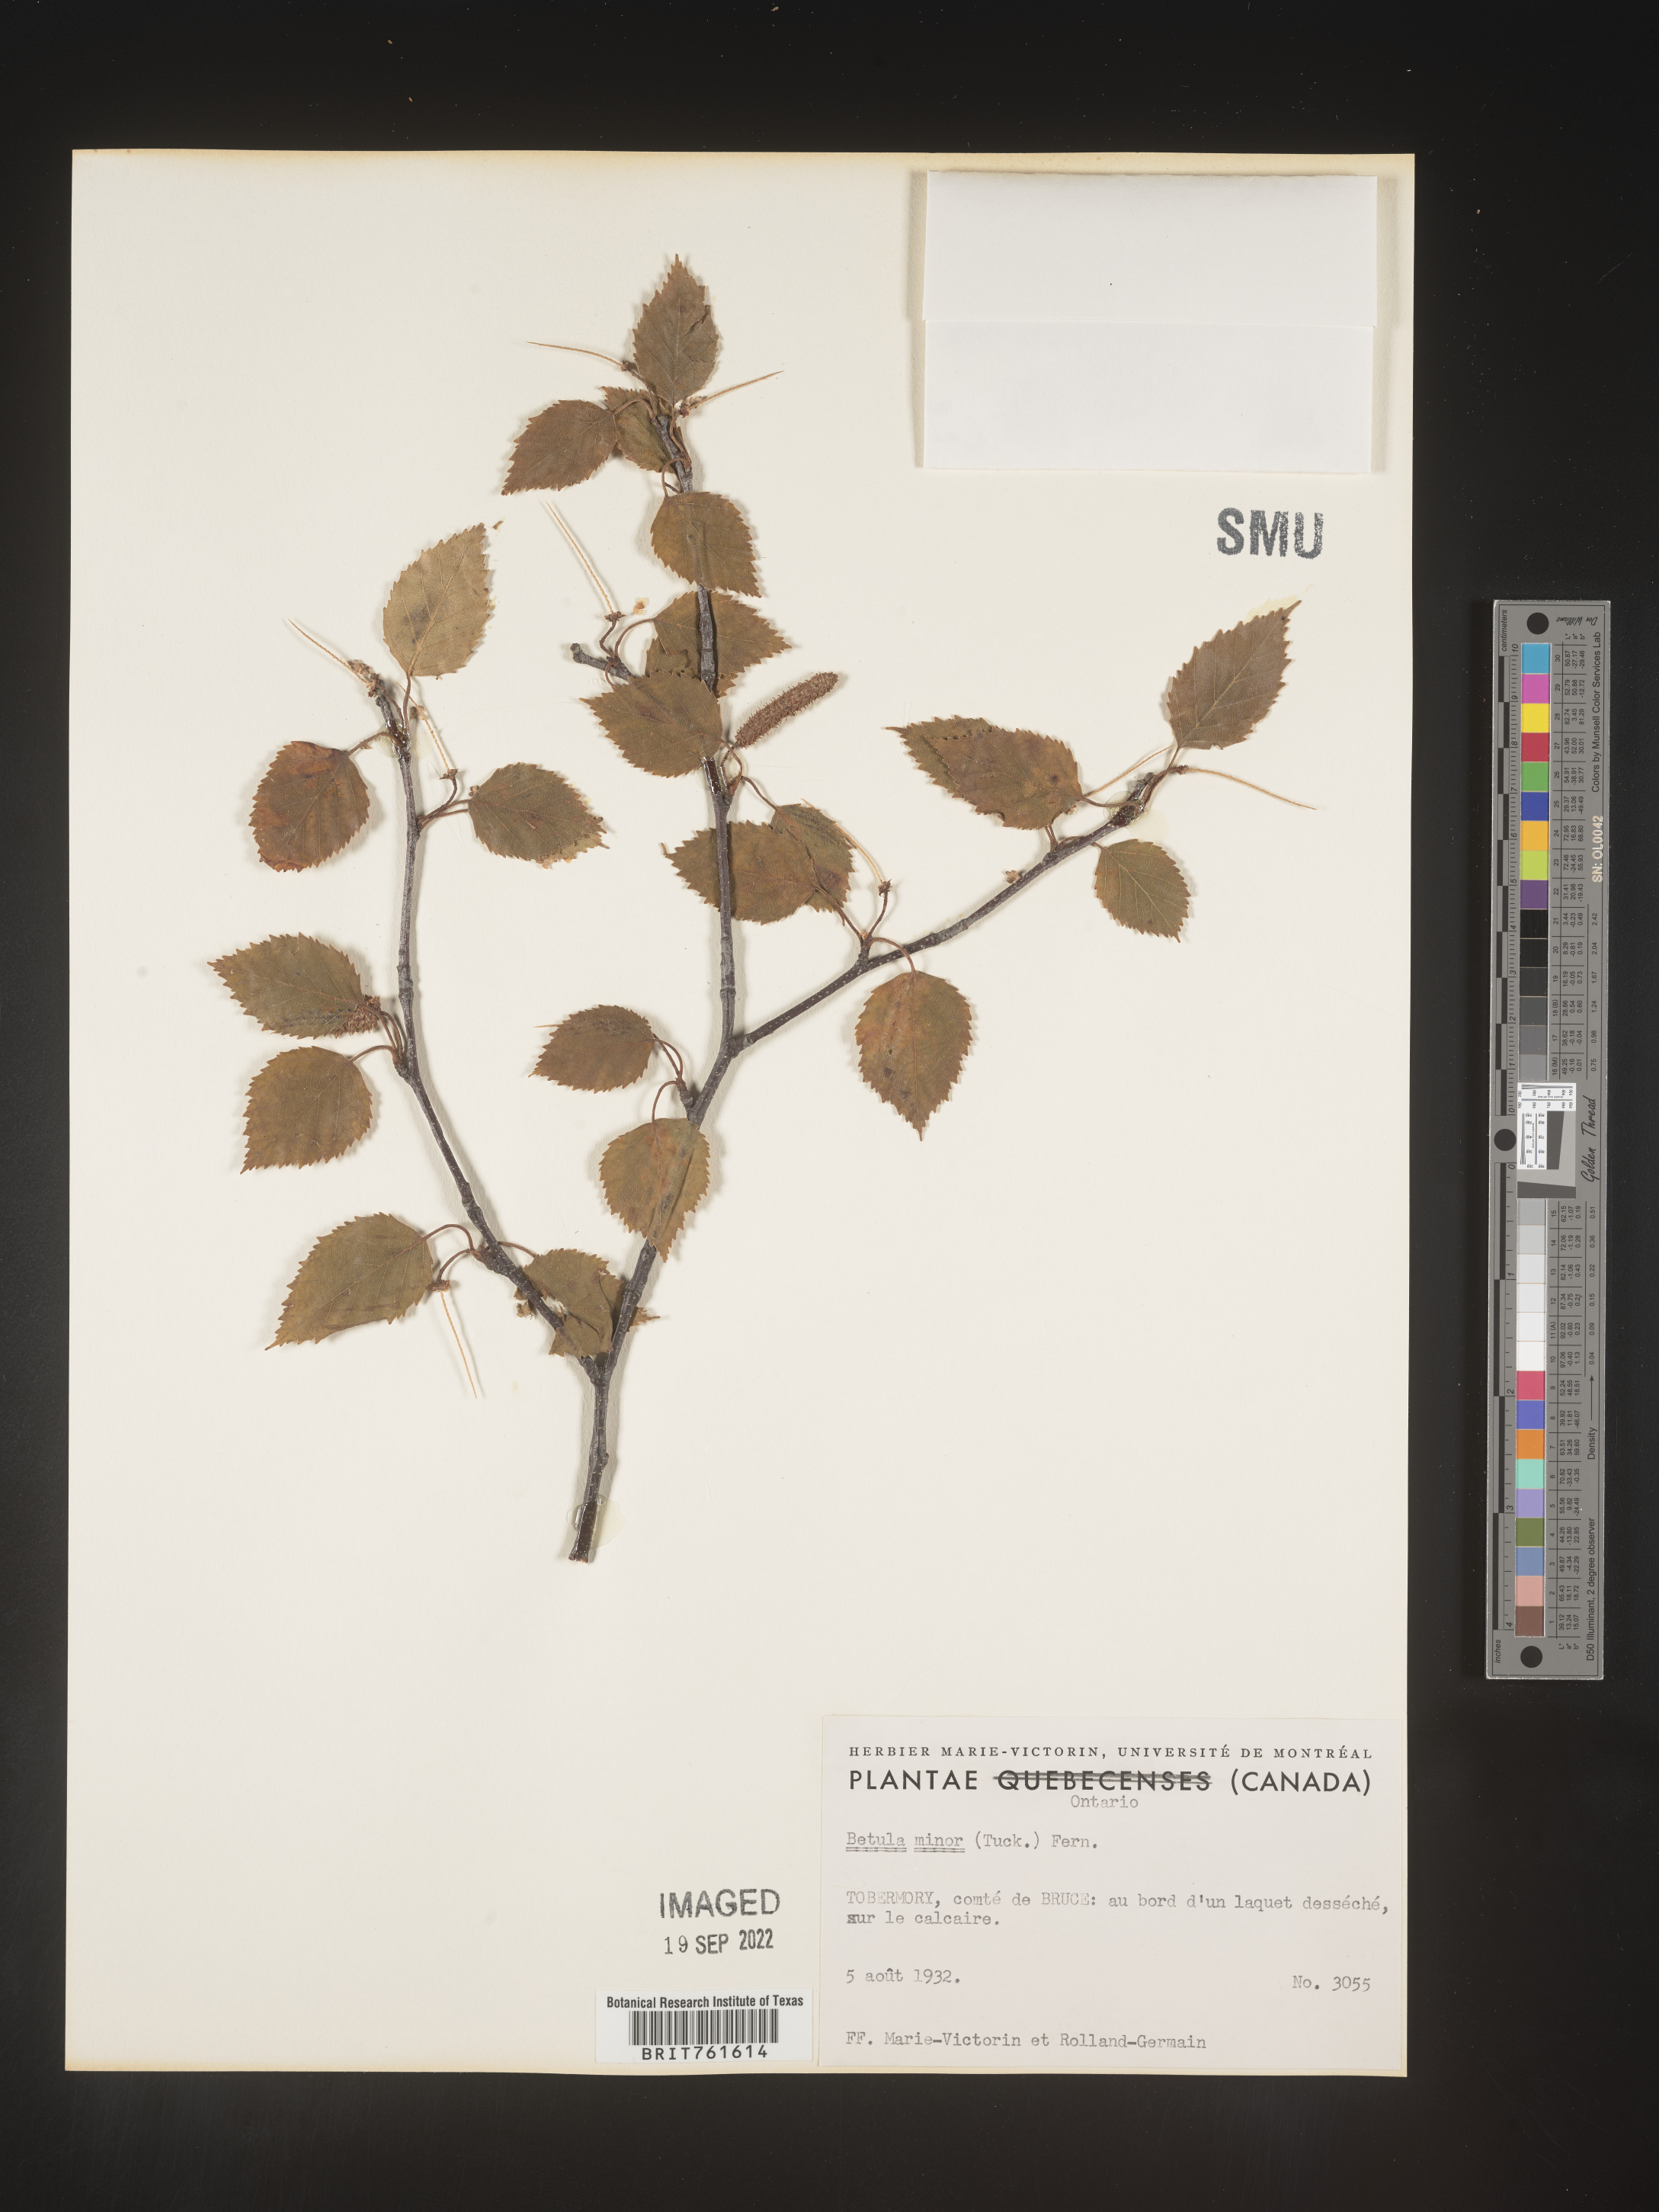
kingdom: Plantae
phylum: Tracheophyta
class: Magnoliopsida
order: Fagales
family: Betulaceae
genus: Betula
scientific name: Betula
